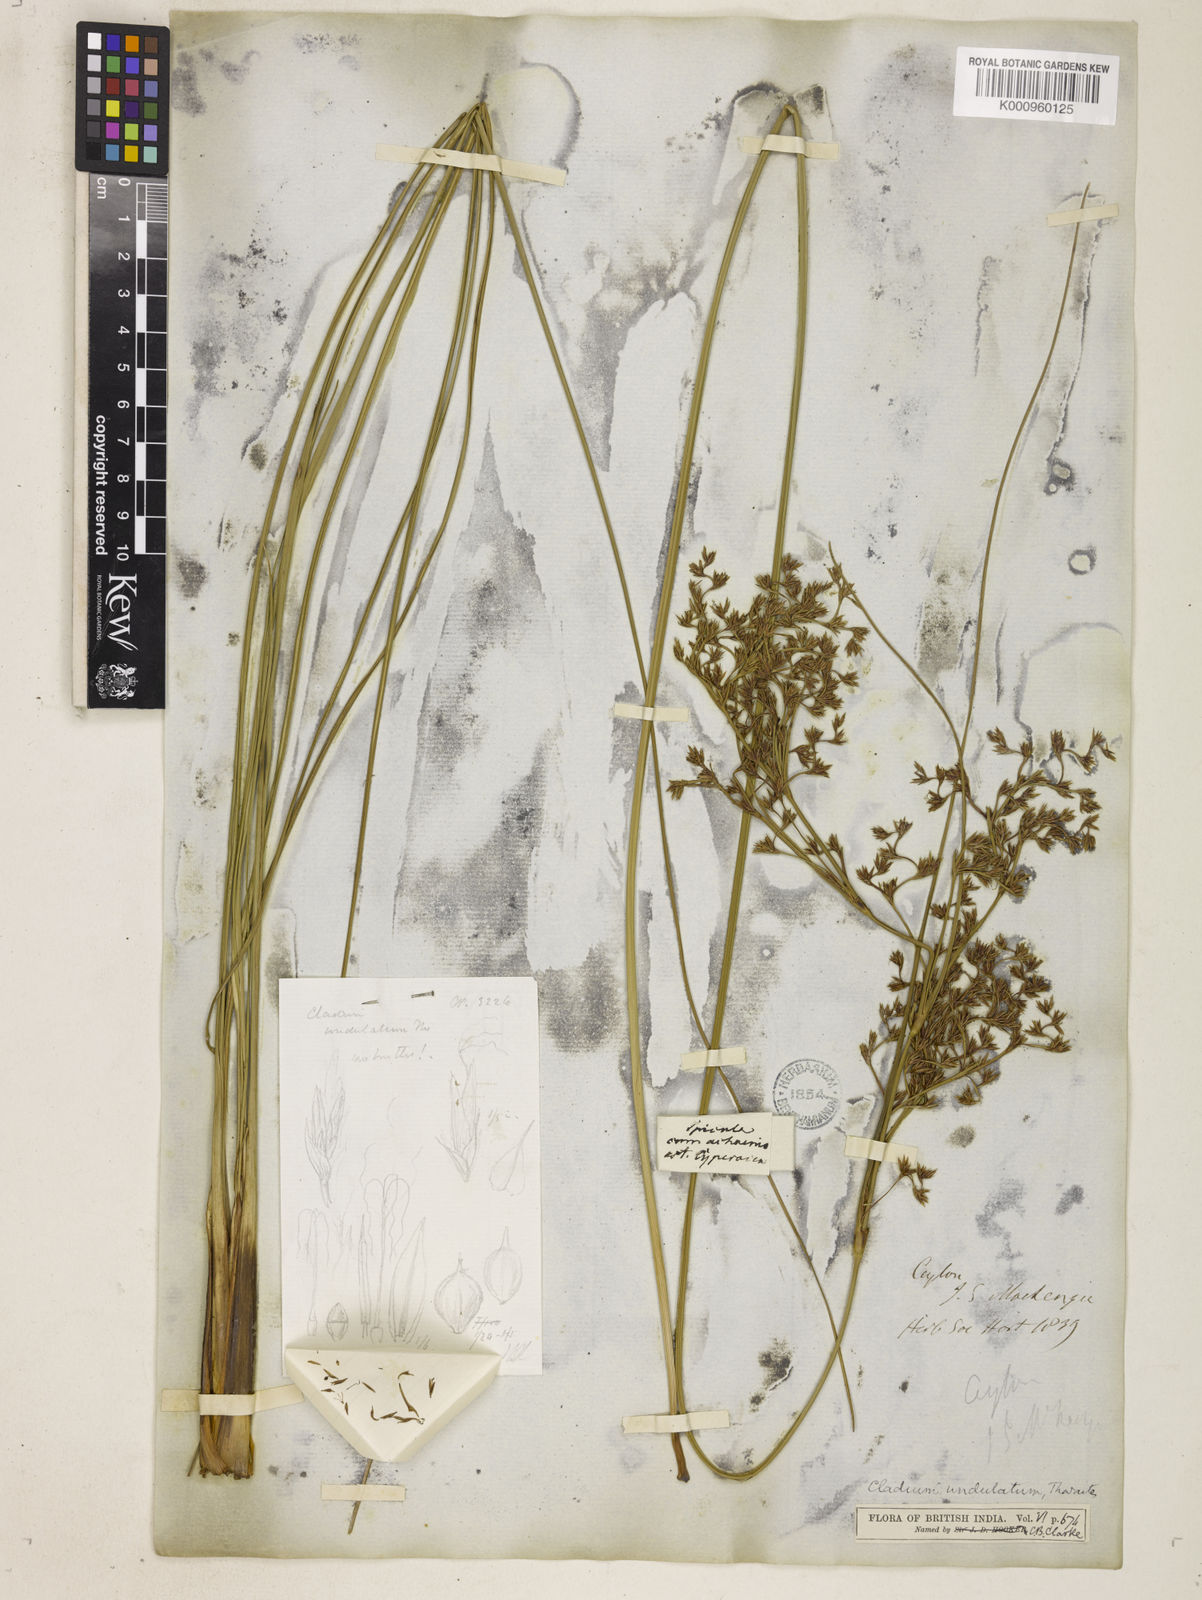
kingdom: Plantae
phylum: Tracheophyta
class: Liliopsida
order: Poales
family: Cyperaceae
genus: Anthelepis
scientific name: Anthelepis undulata
